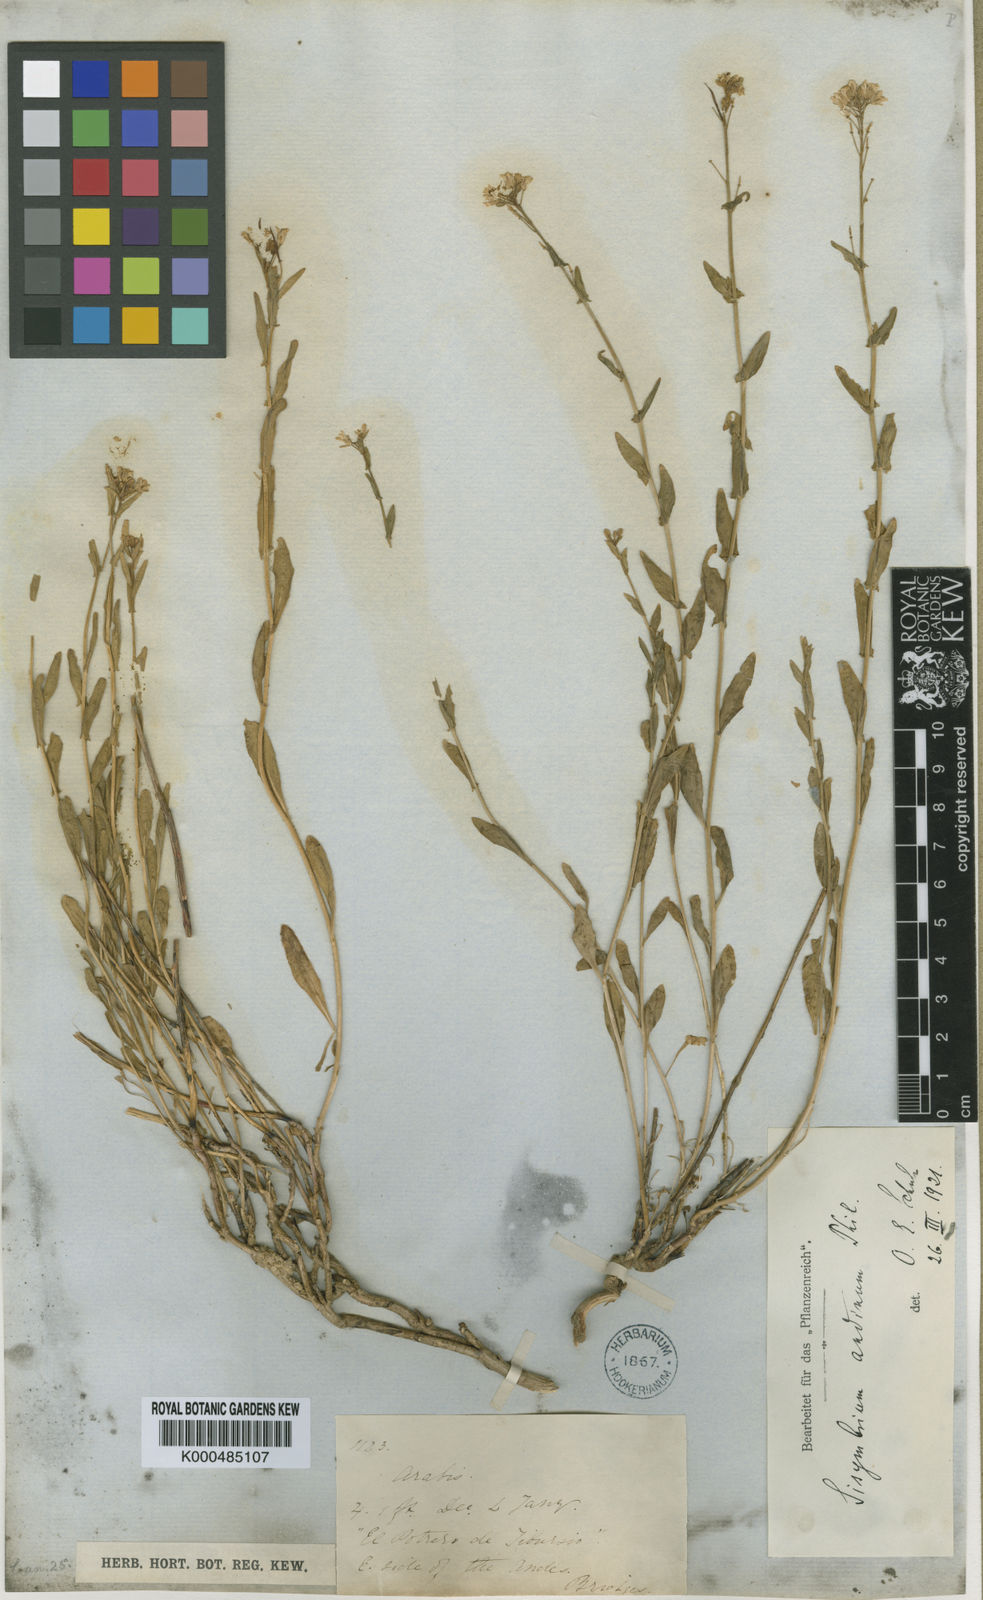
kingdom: Plantae
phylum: Tracheophyta
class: Magnoliopsida
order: Brassicales
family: Brassicaceae
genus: Mostacillastrum
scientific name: Mostacillastrum andinum
